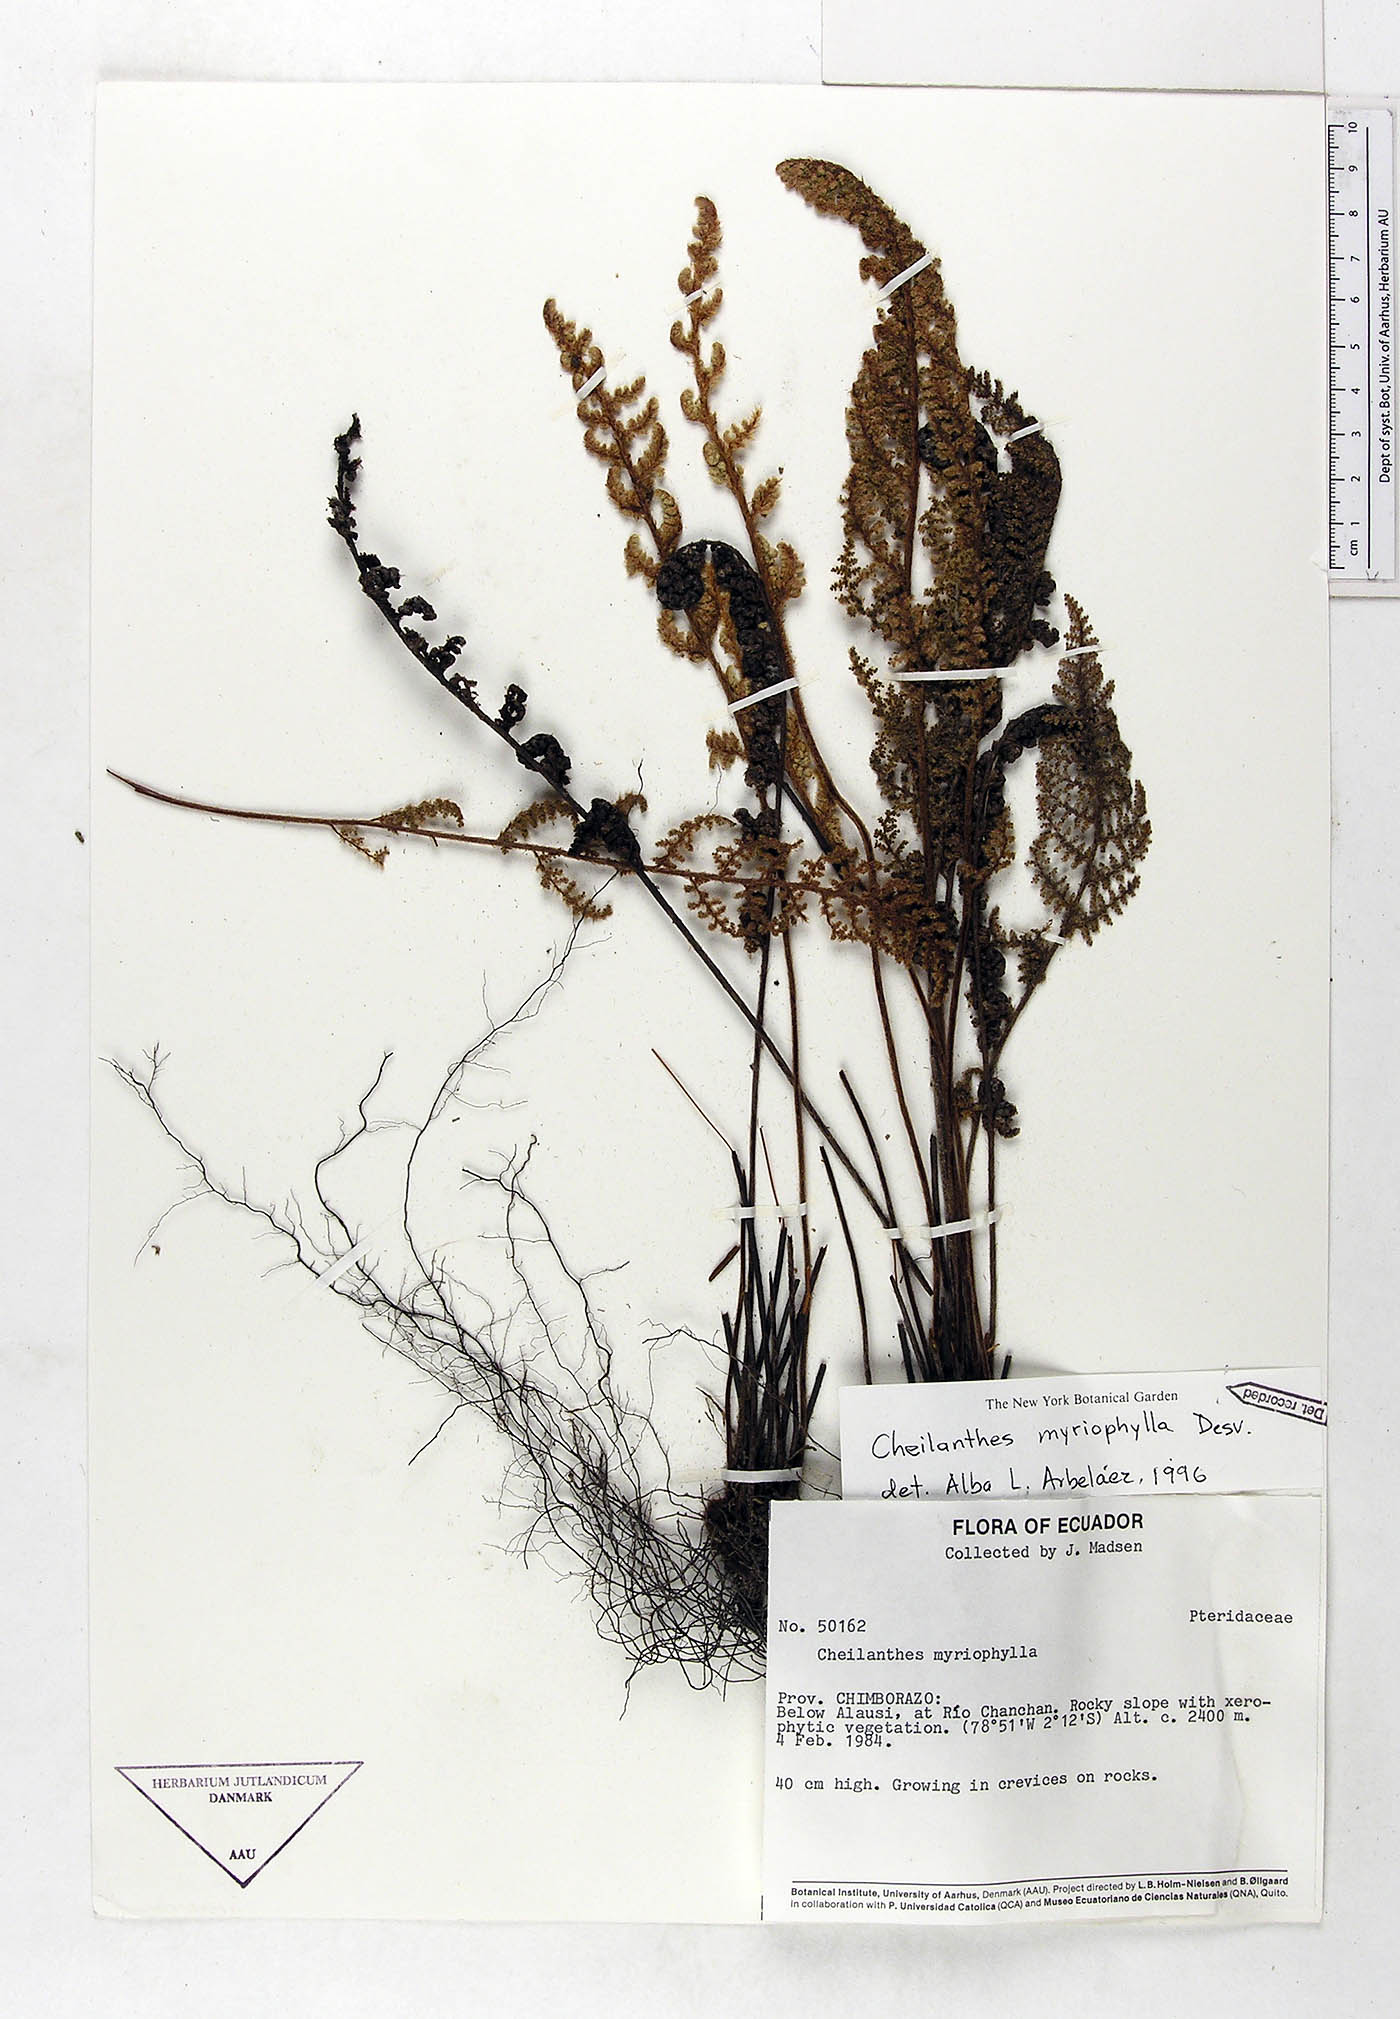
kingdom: Plantae
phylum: Tracheophyta
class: Polypodiopsida
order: Polypodiales
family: Pteridaceae
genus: Myriopteris
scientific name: Myriopteris myriophylla
